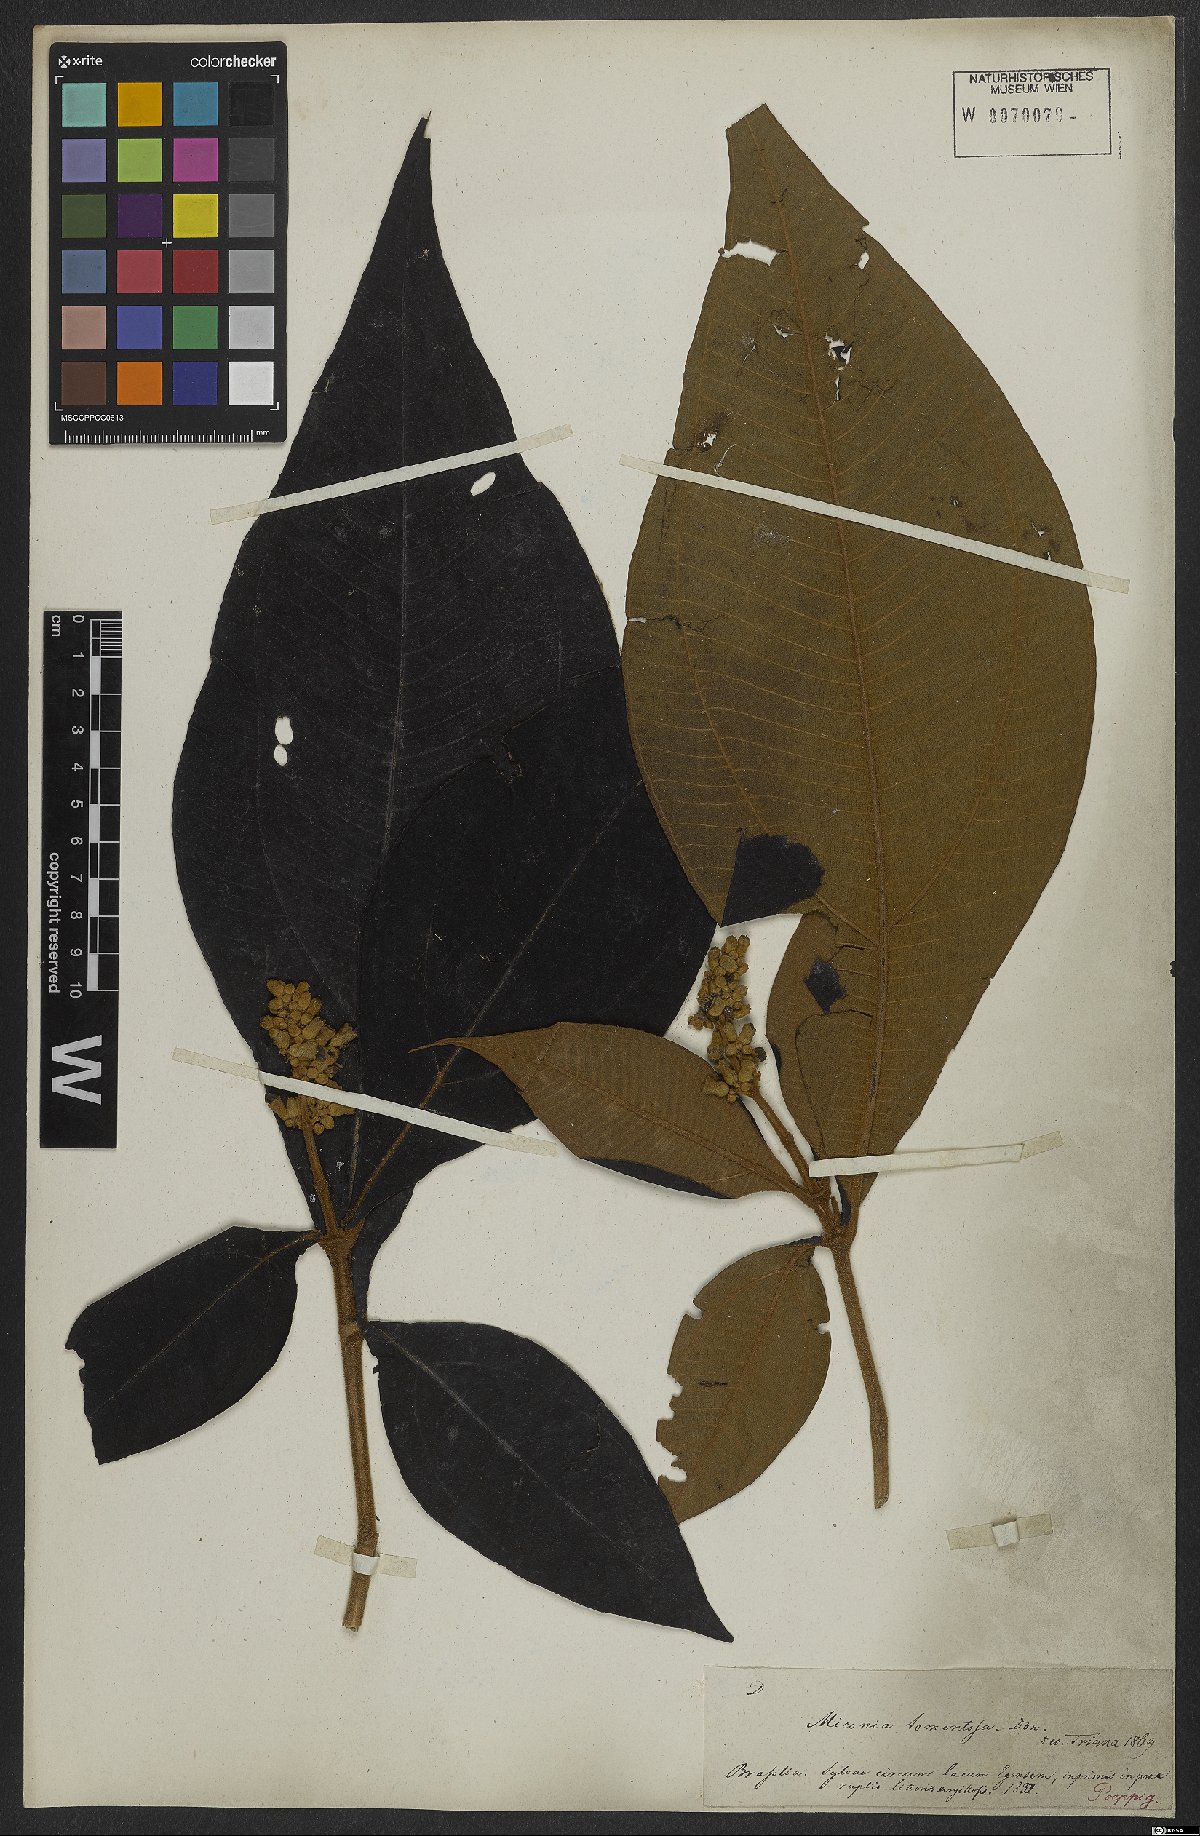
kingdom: Plantae
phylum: Tracheophyta
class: Magnoliopsida
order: Myrtales
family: Melastomataceae
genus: Miconia
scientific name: Miconia tomentosa
